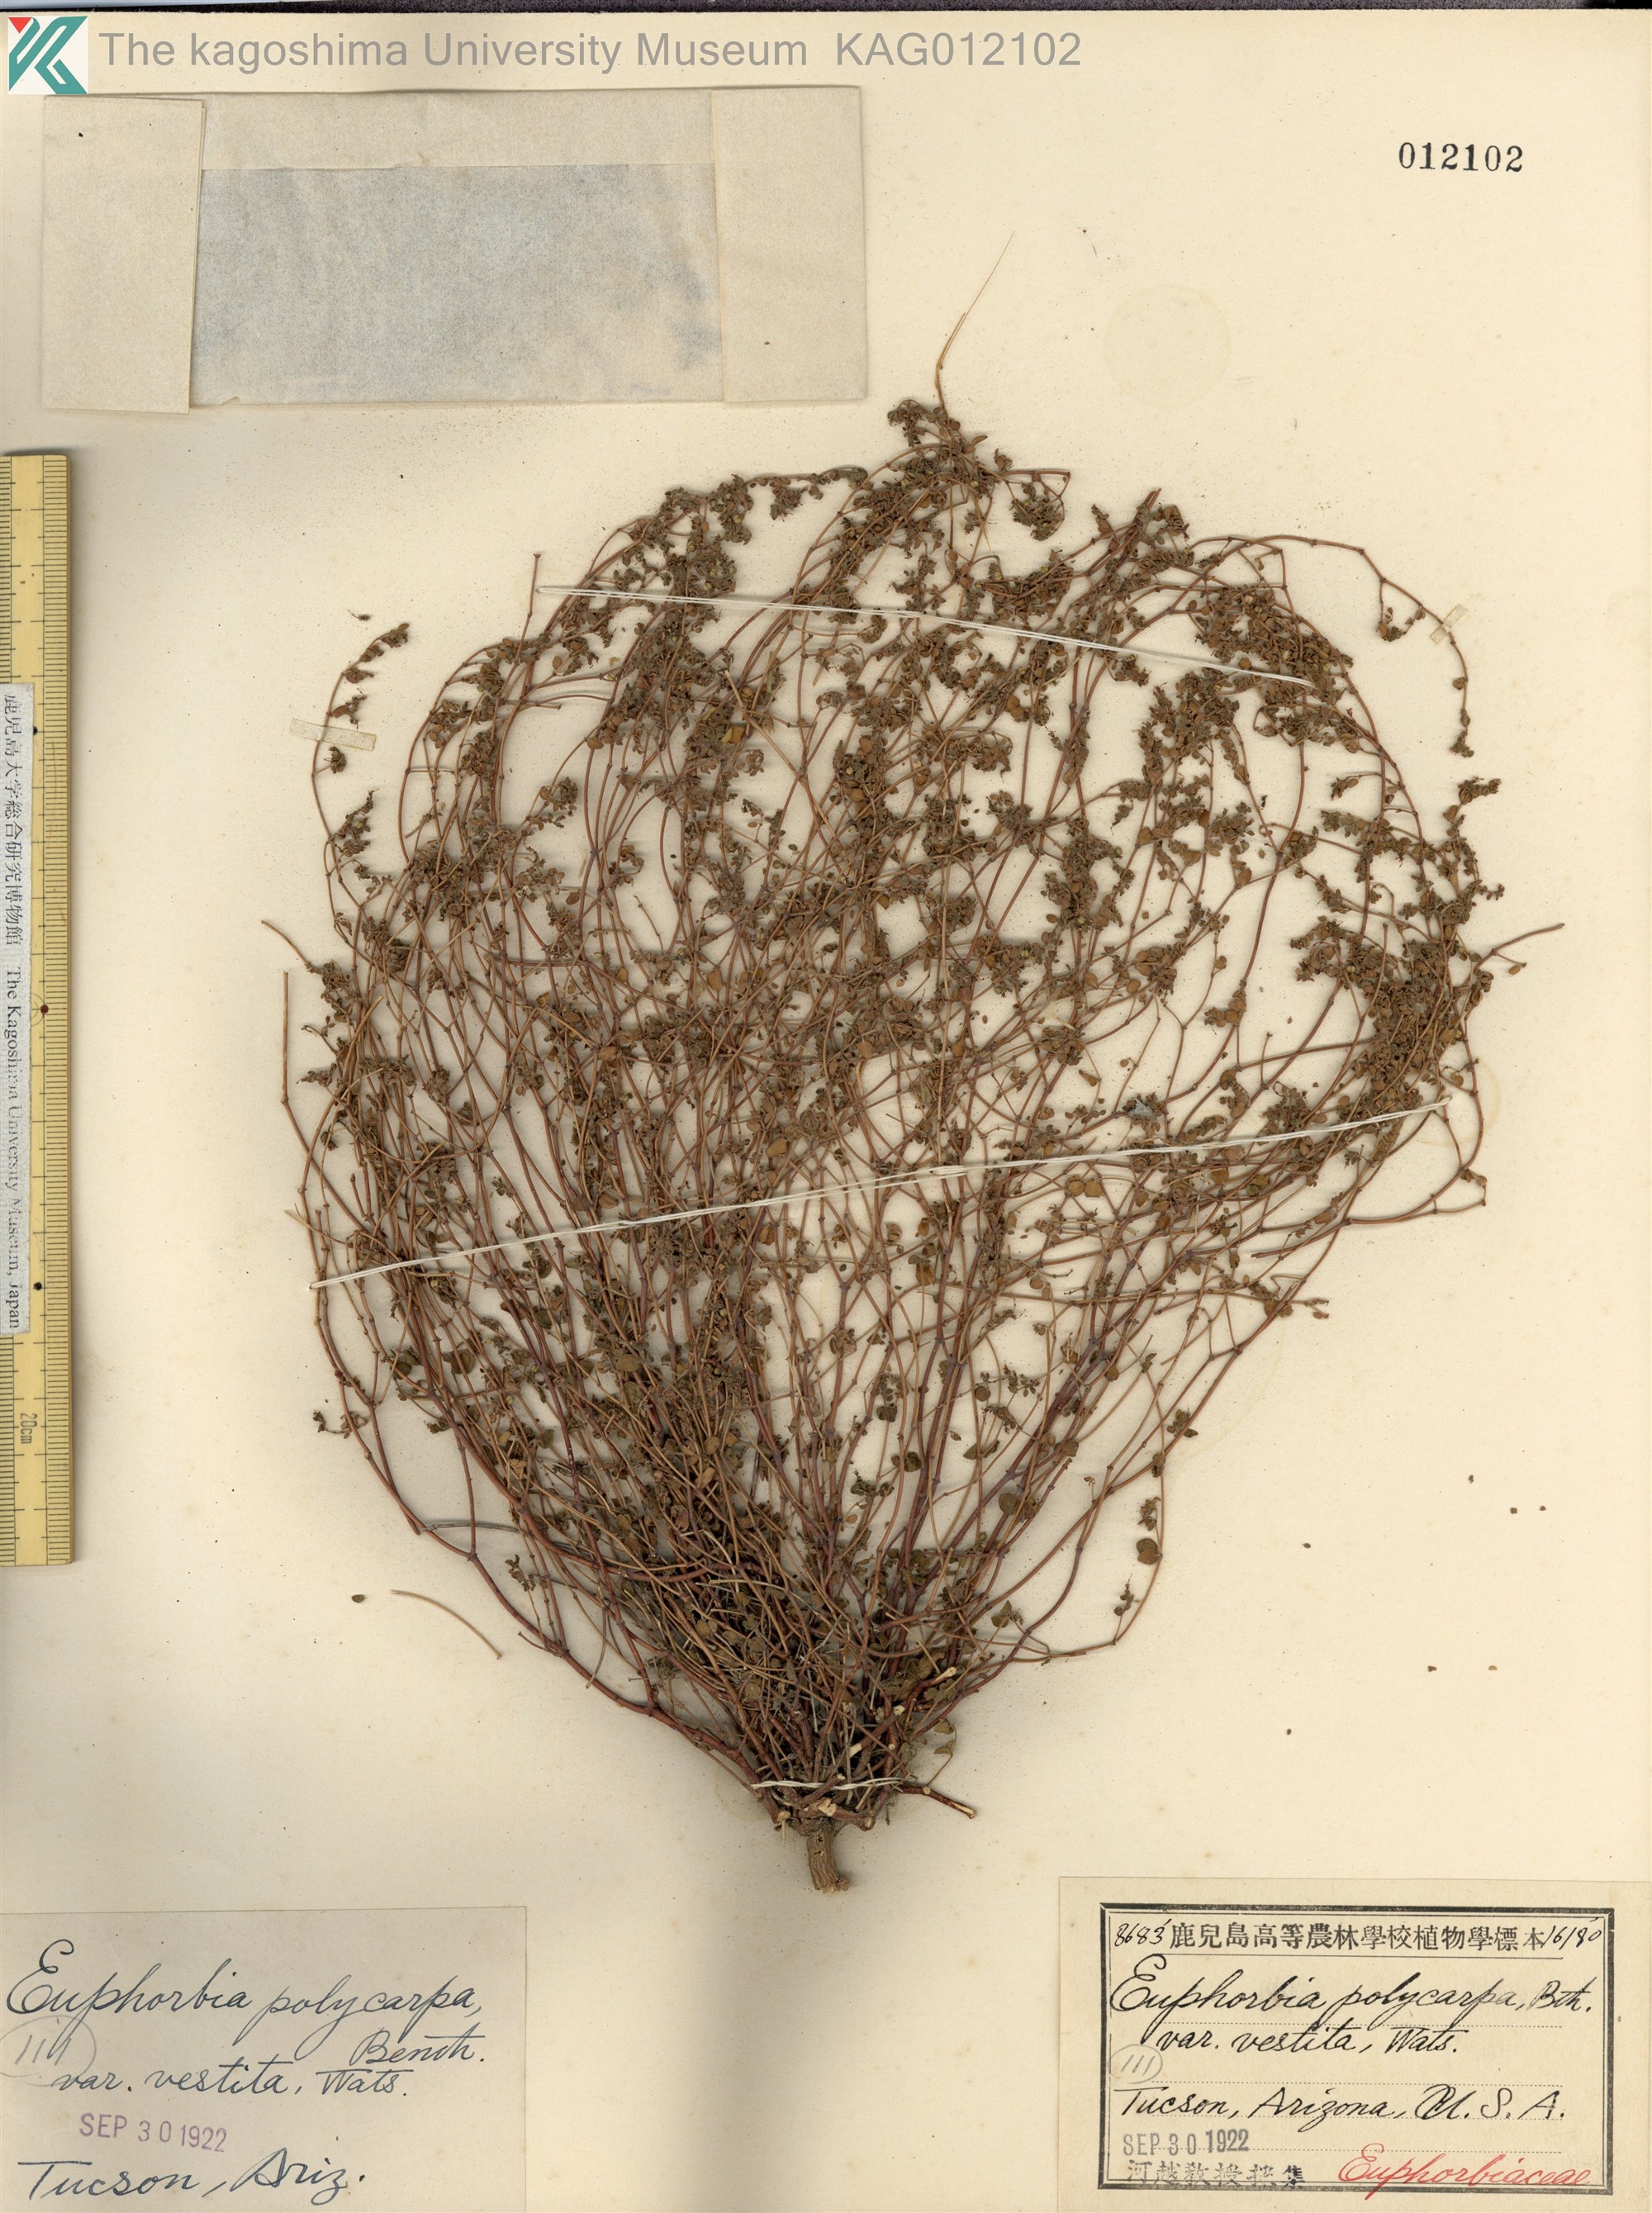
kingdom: Plantae
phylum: Tracheophyta
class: Magnoliopsida
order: Malpighiales
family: Euphorbiaceae
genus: Euphorbia
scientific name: Euphorbia polycarpa
